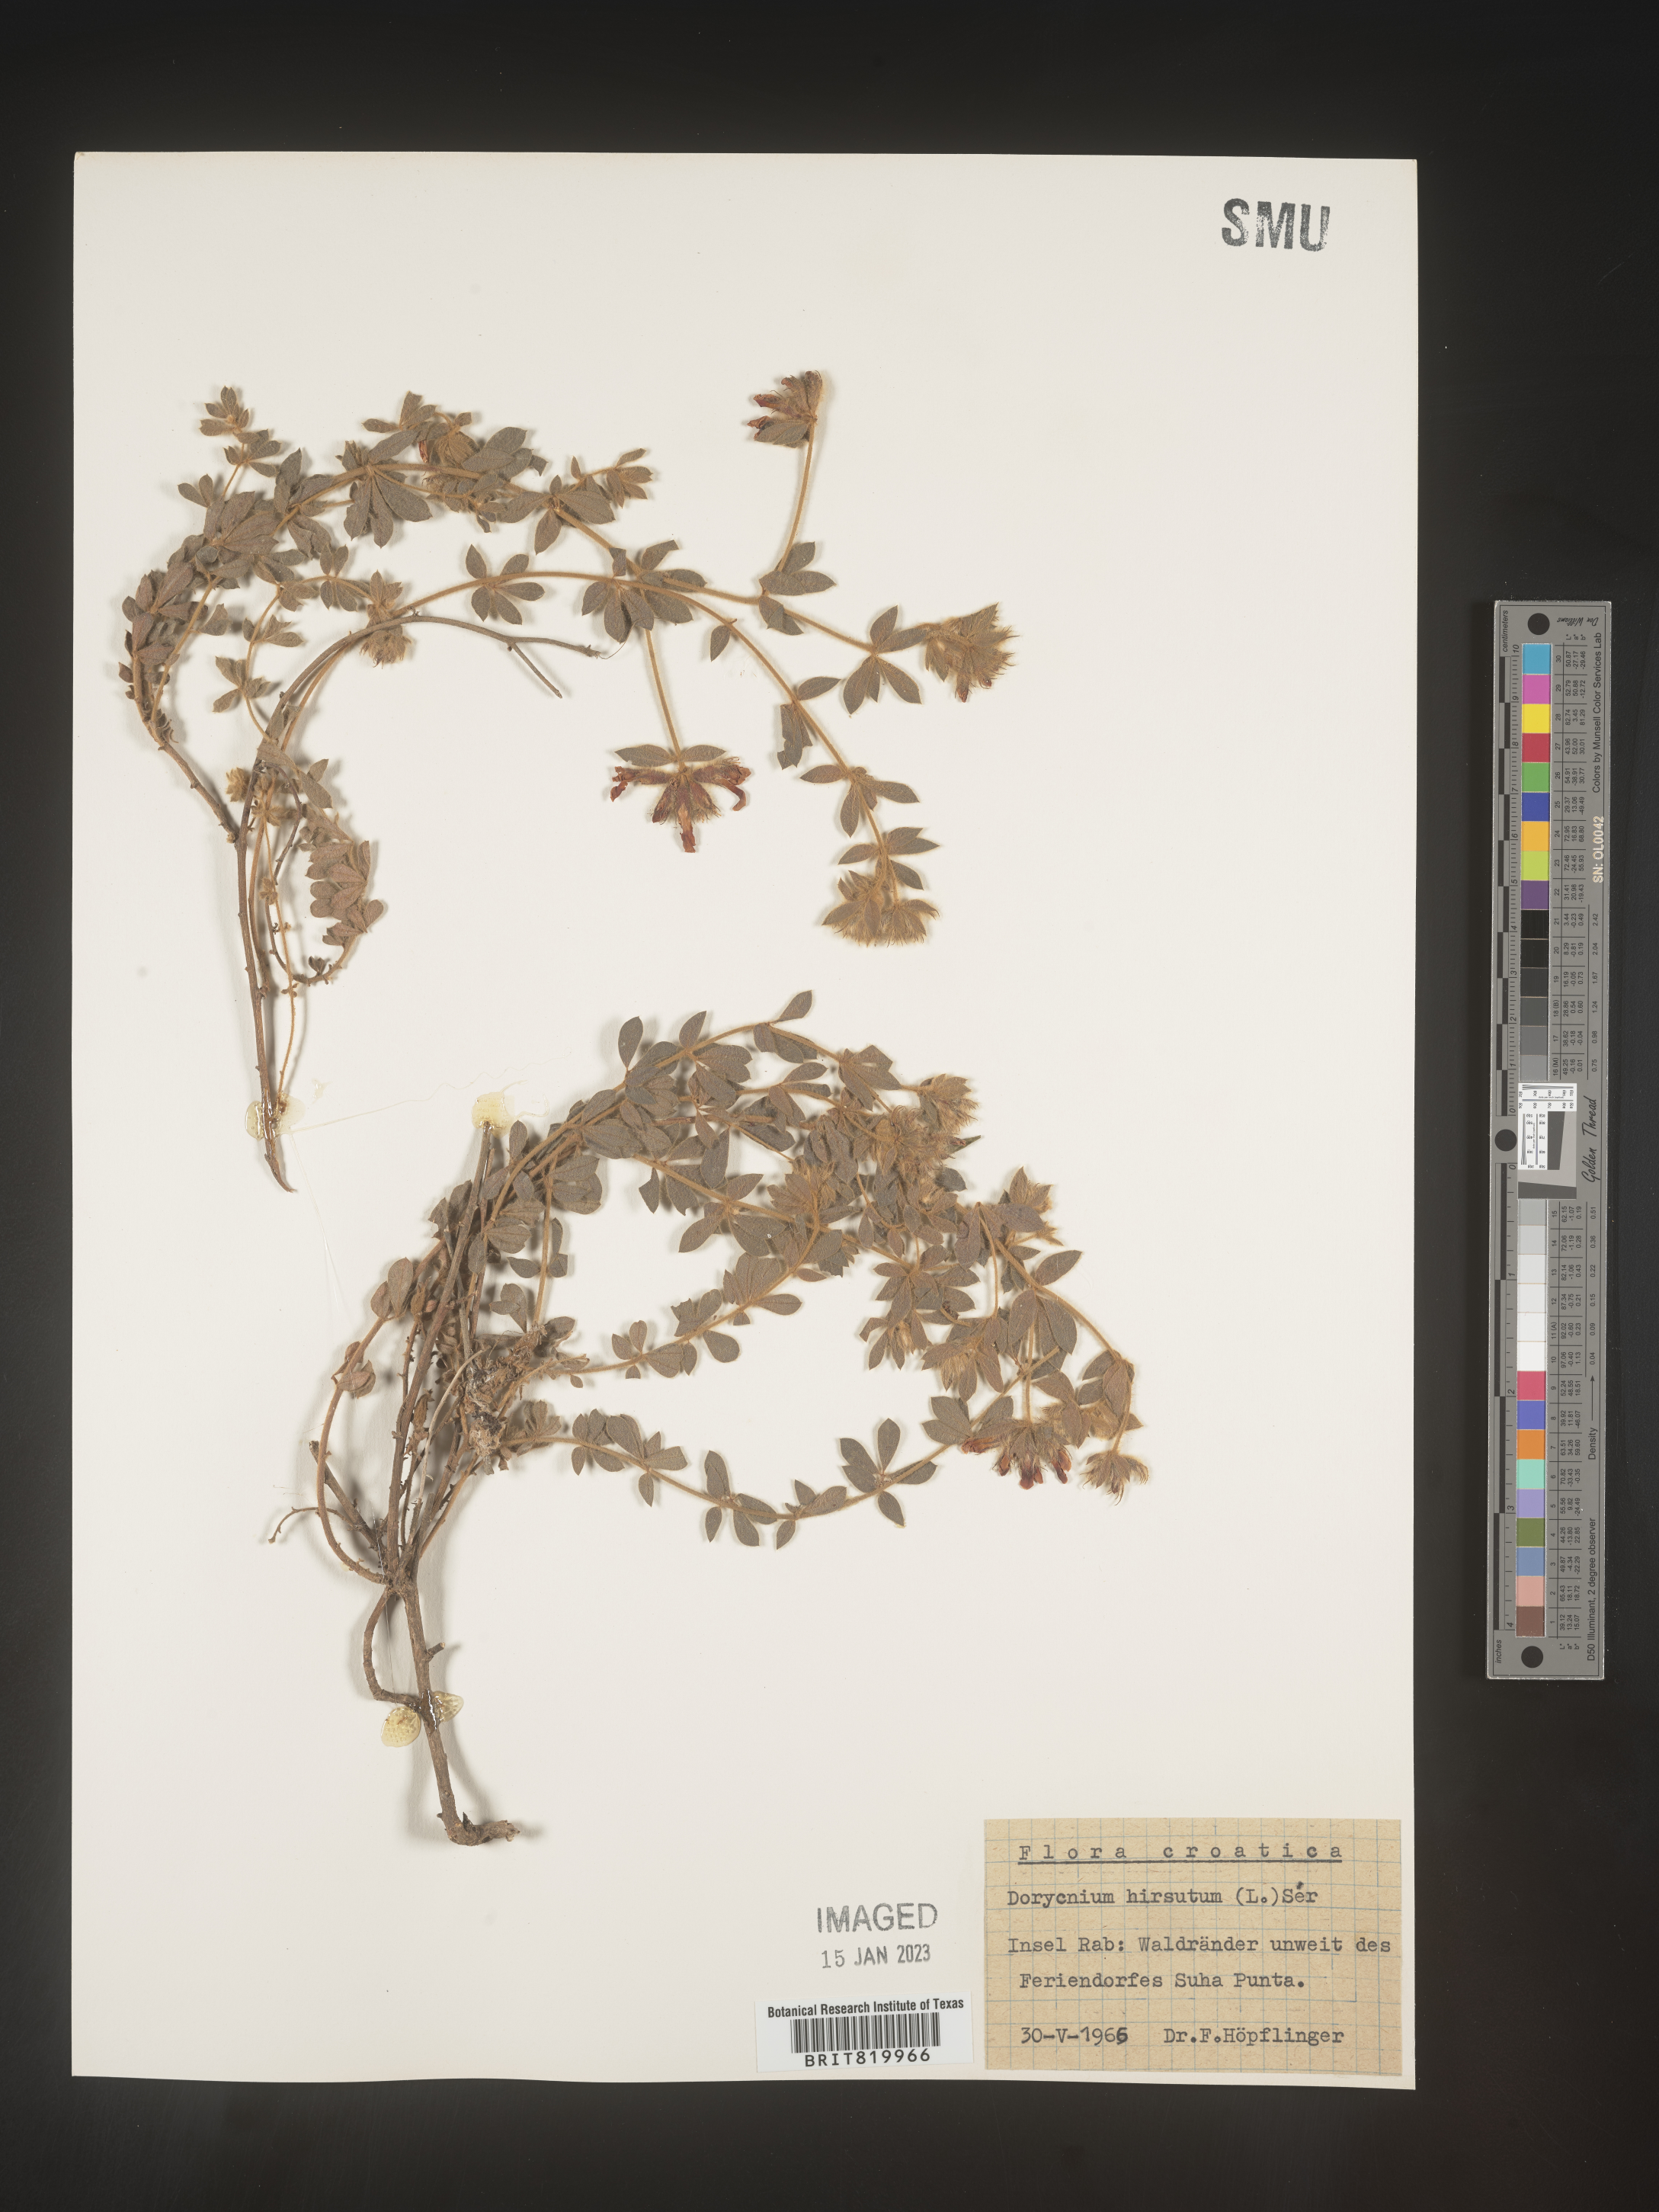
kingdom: Plantae
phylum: Tracheophyta
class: Magnoliopsida
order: Fabales
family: Fabaceae
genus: Lotus
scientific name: Lotus
